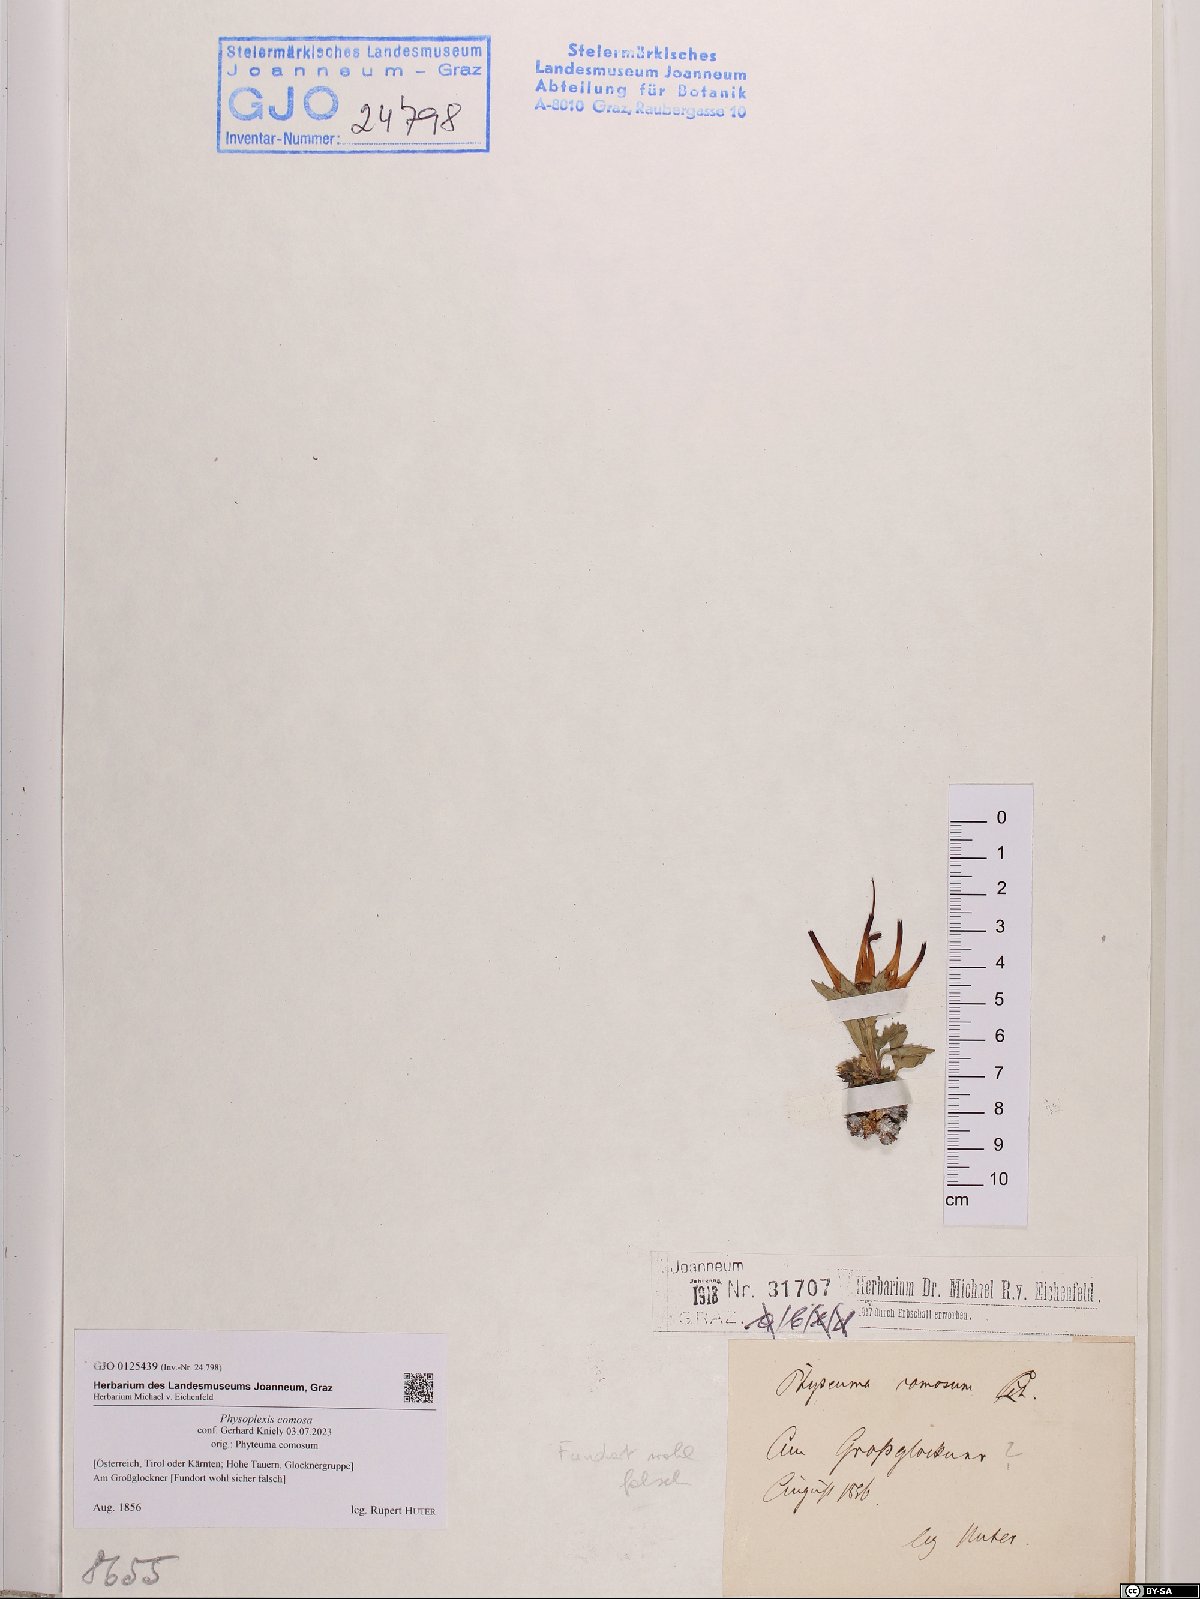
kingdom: Plantae
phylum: Tracheophyta
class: Magnoliopsida
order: Asterales
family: Campanulaceae
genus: Physoplexis
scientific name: Physoplexis comosa
